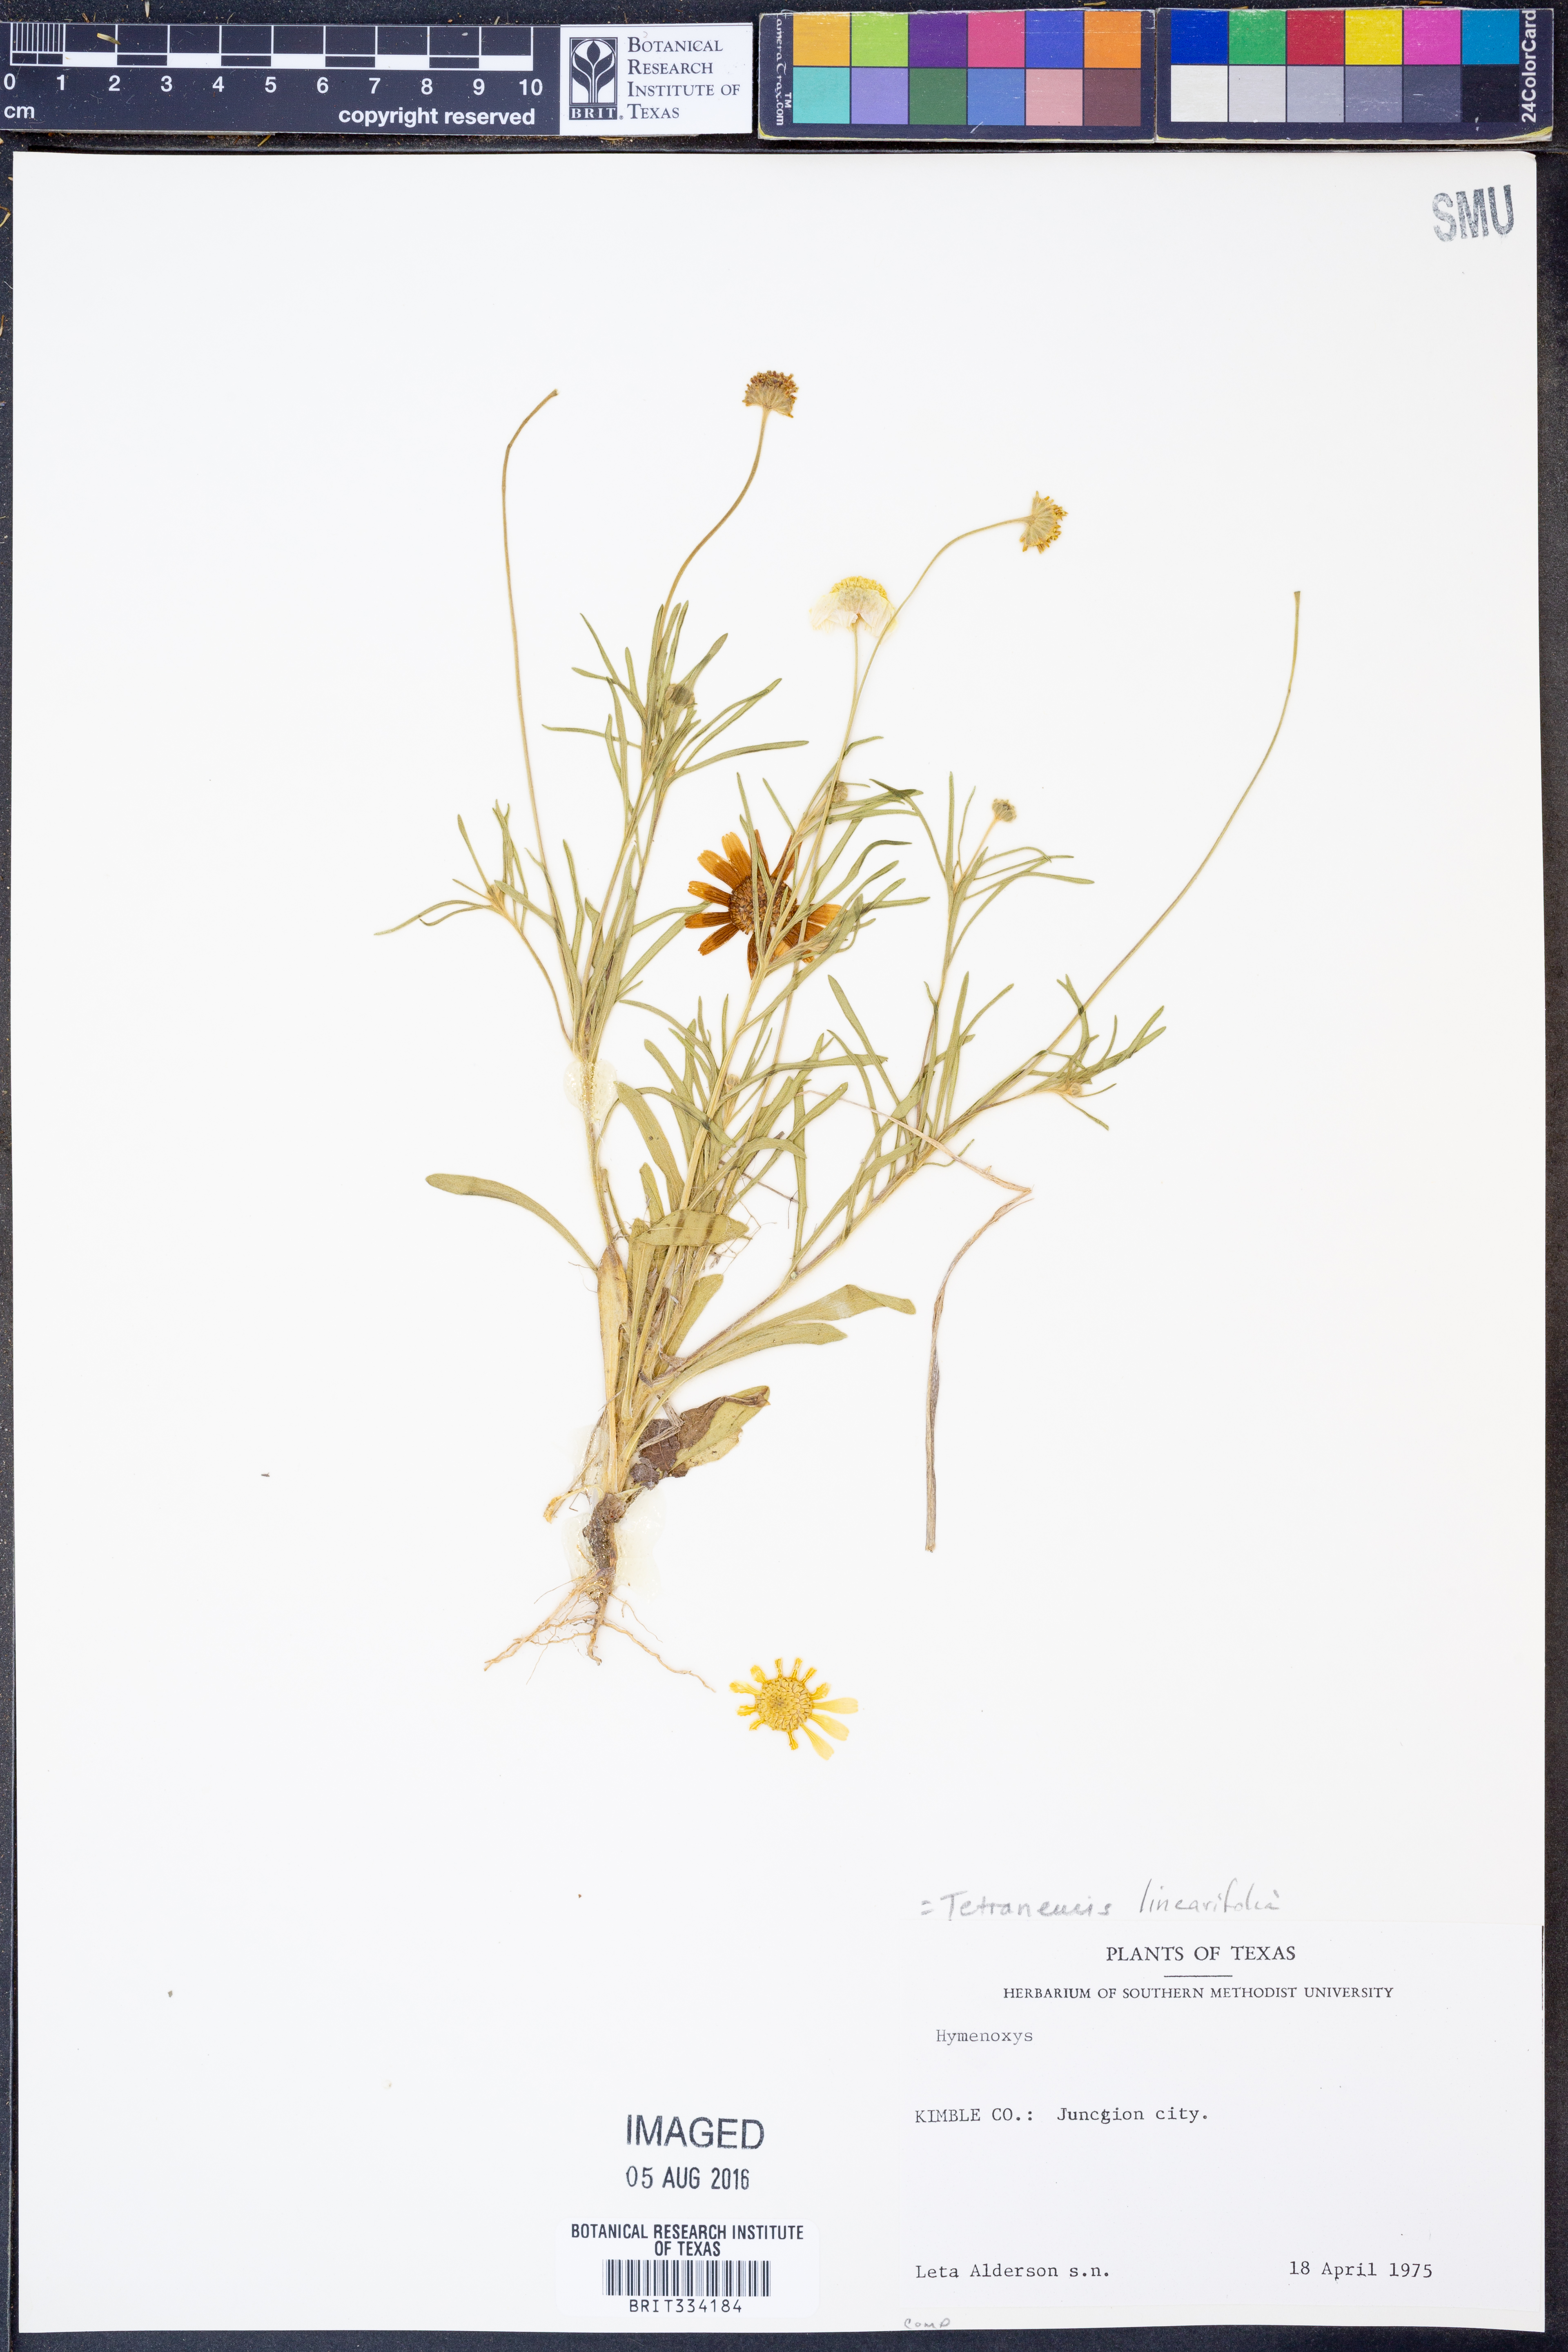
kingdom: Plantae
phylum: Tracheophyta
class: Magnoliopsida
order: Asterales
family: Asteraceae
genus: Tetraneuris
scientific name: Tetraneuris linearifolia
